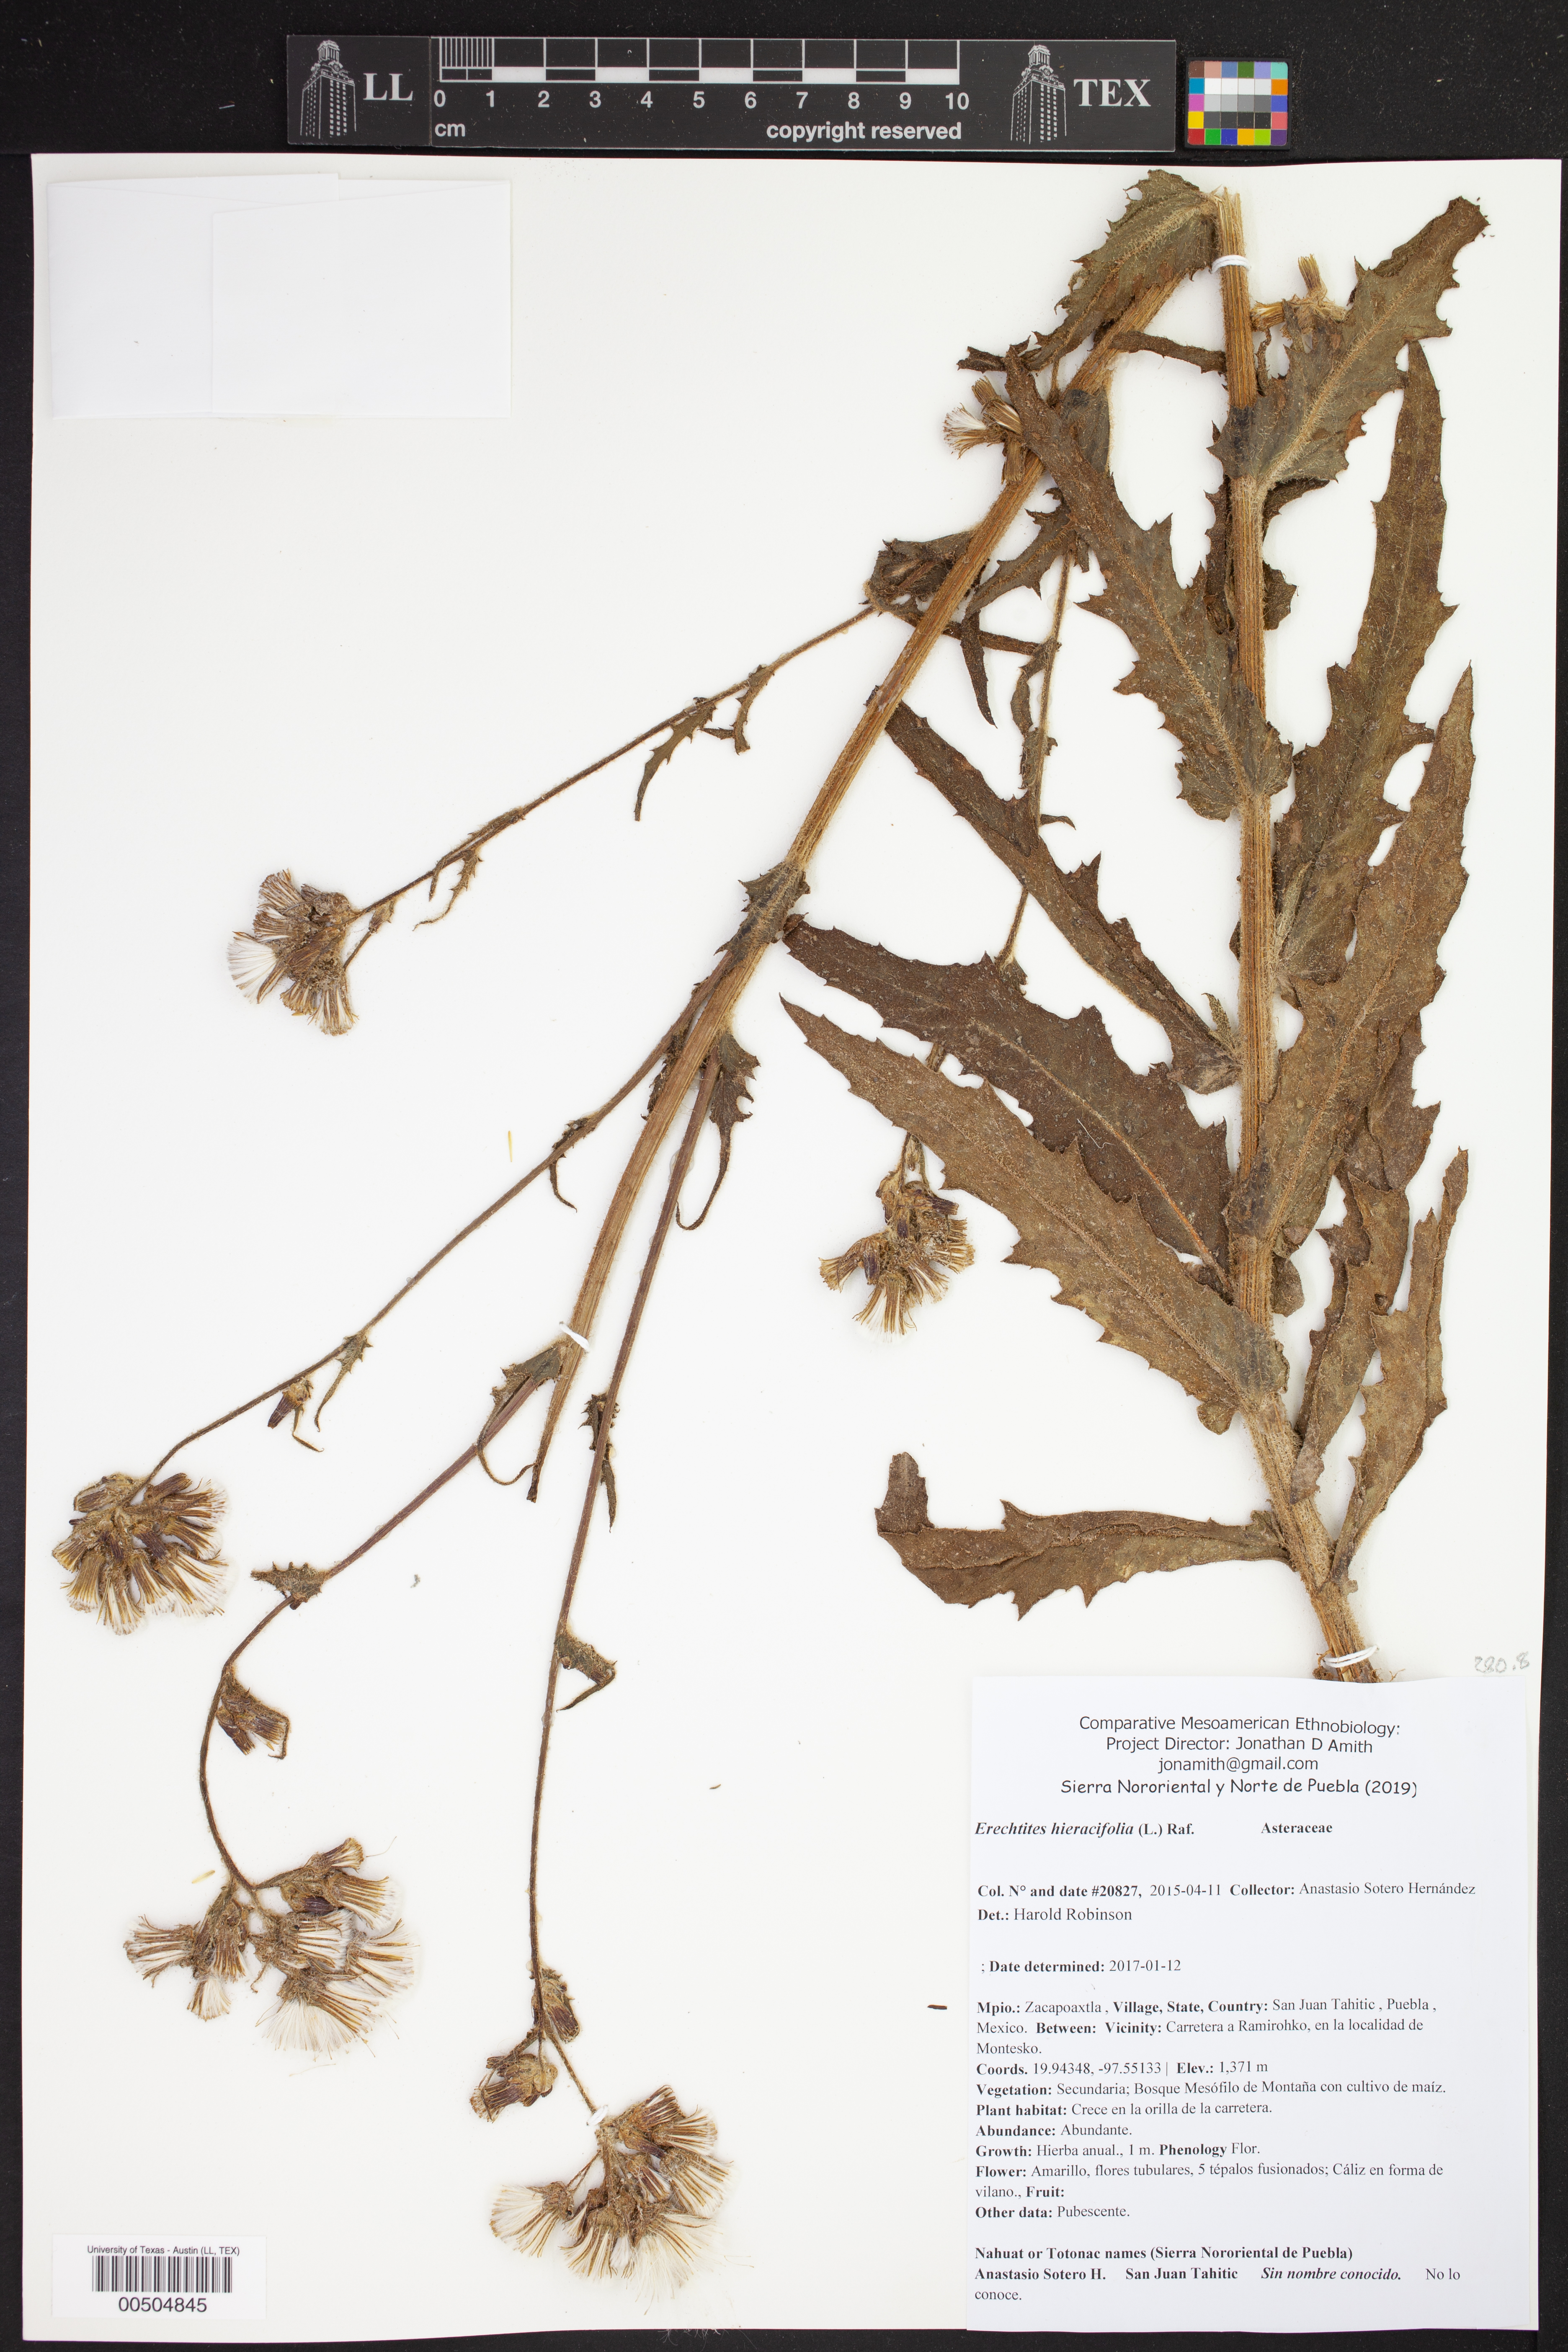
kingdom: Plantae
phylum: Tracheophyta
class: Magnoliopsida
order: Asterales
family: Asteraceae
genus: Erechtites
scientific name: Erechtites hieraciifolius
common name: American burnweed
